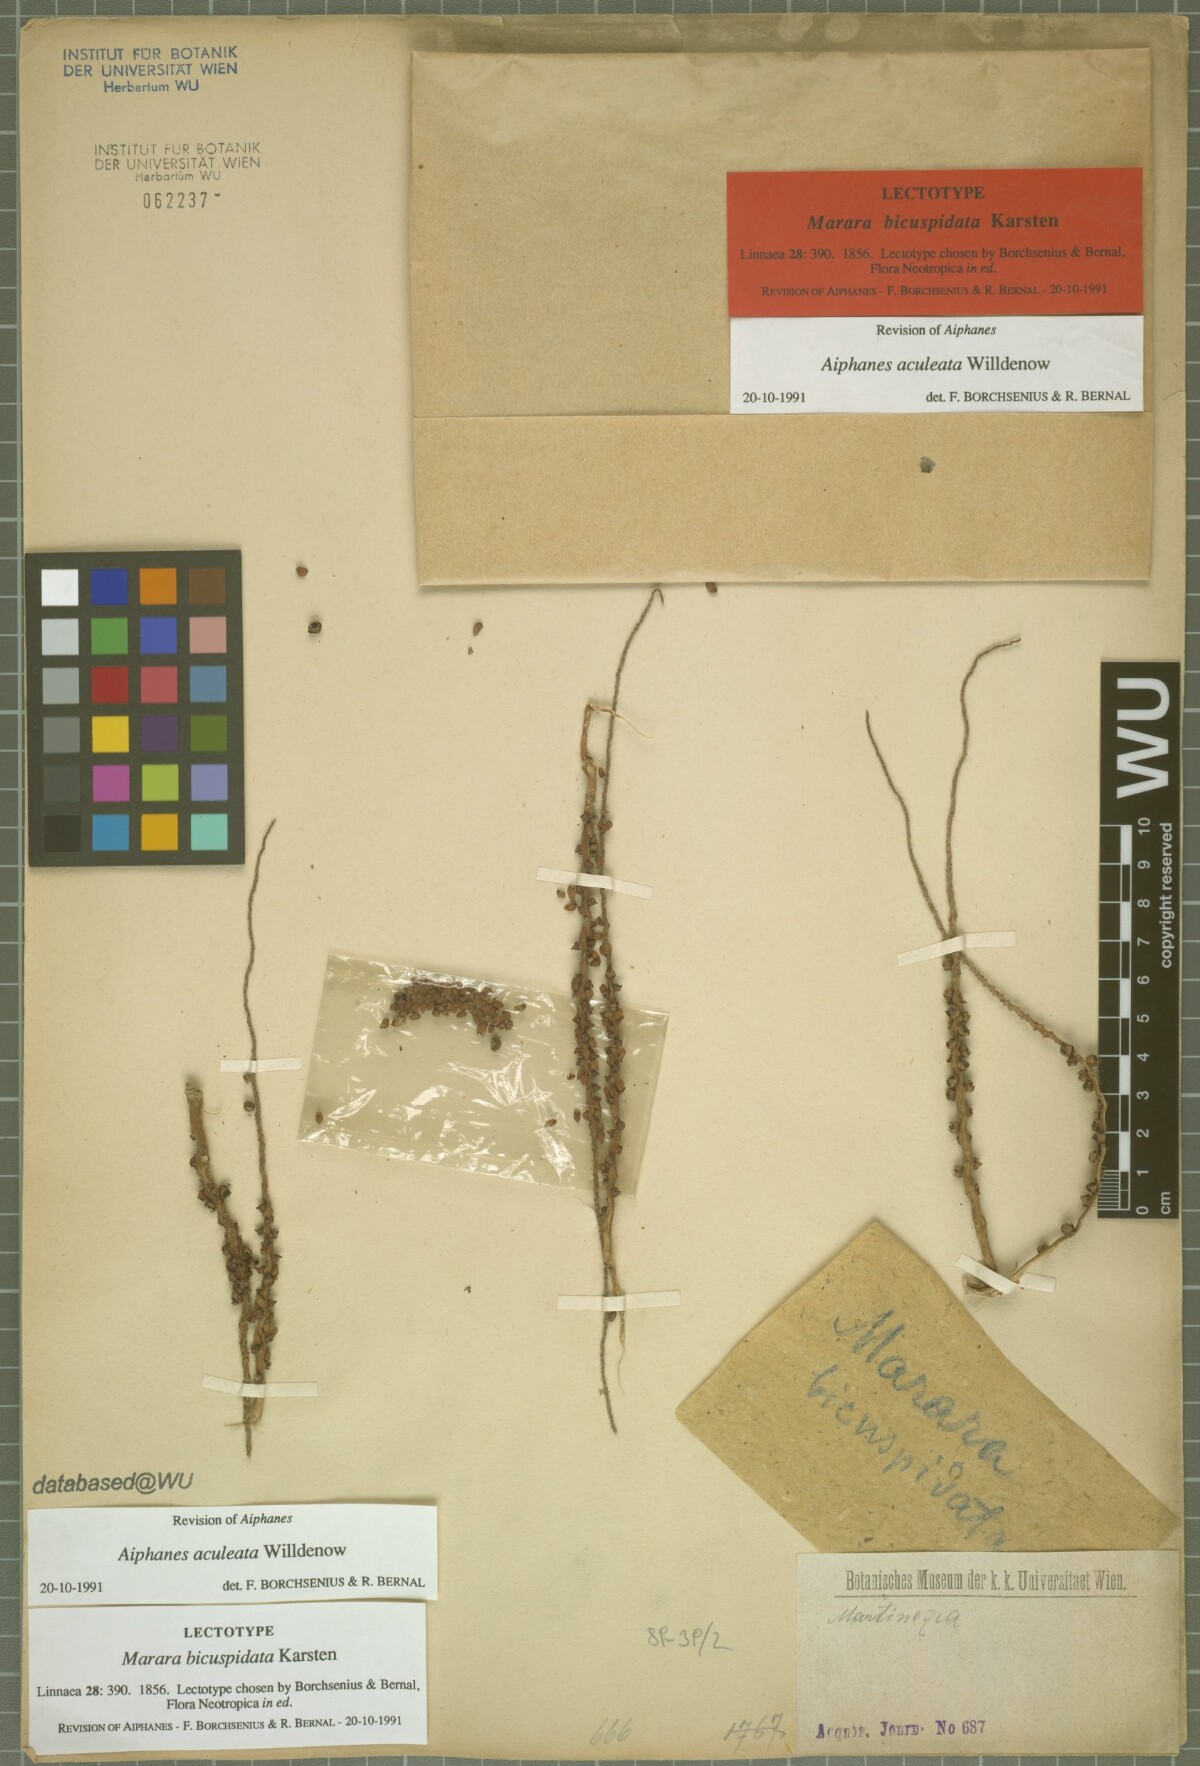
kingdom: Plantae
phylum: Tracheophyta
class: Liliopsida
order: Arecales
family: Arecaceae
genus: Aiphanes
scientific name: Aiphanes horrida
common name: Ruffle palm
